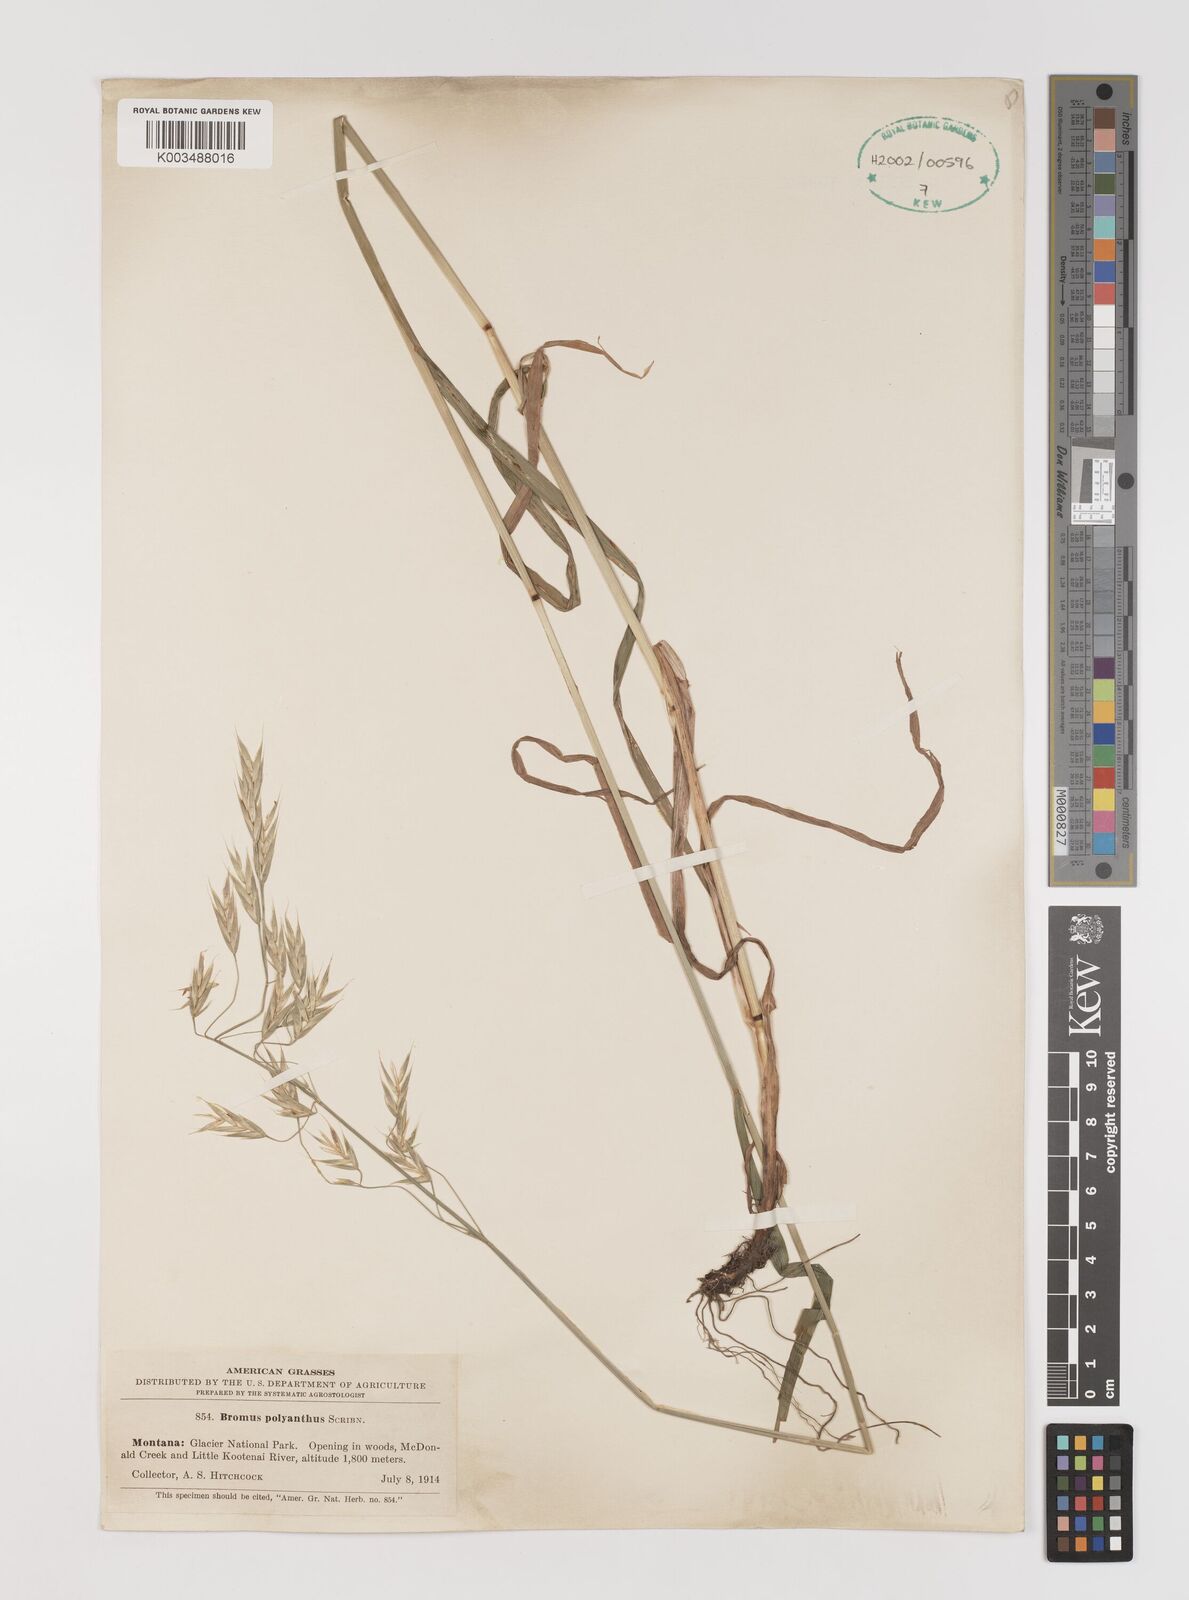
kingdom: Plantae
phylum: Tracheophyta
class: Liliopsida
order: Poales
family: Poaceae
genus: Bromus
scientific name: Bromus polyanthus
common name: Great basin brome
